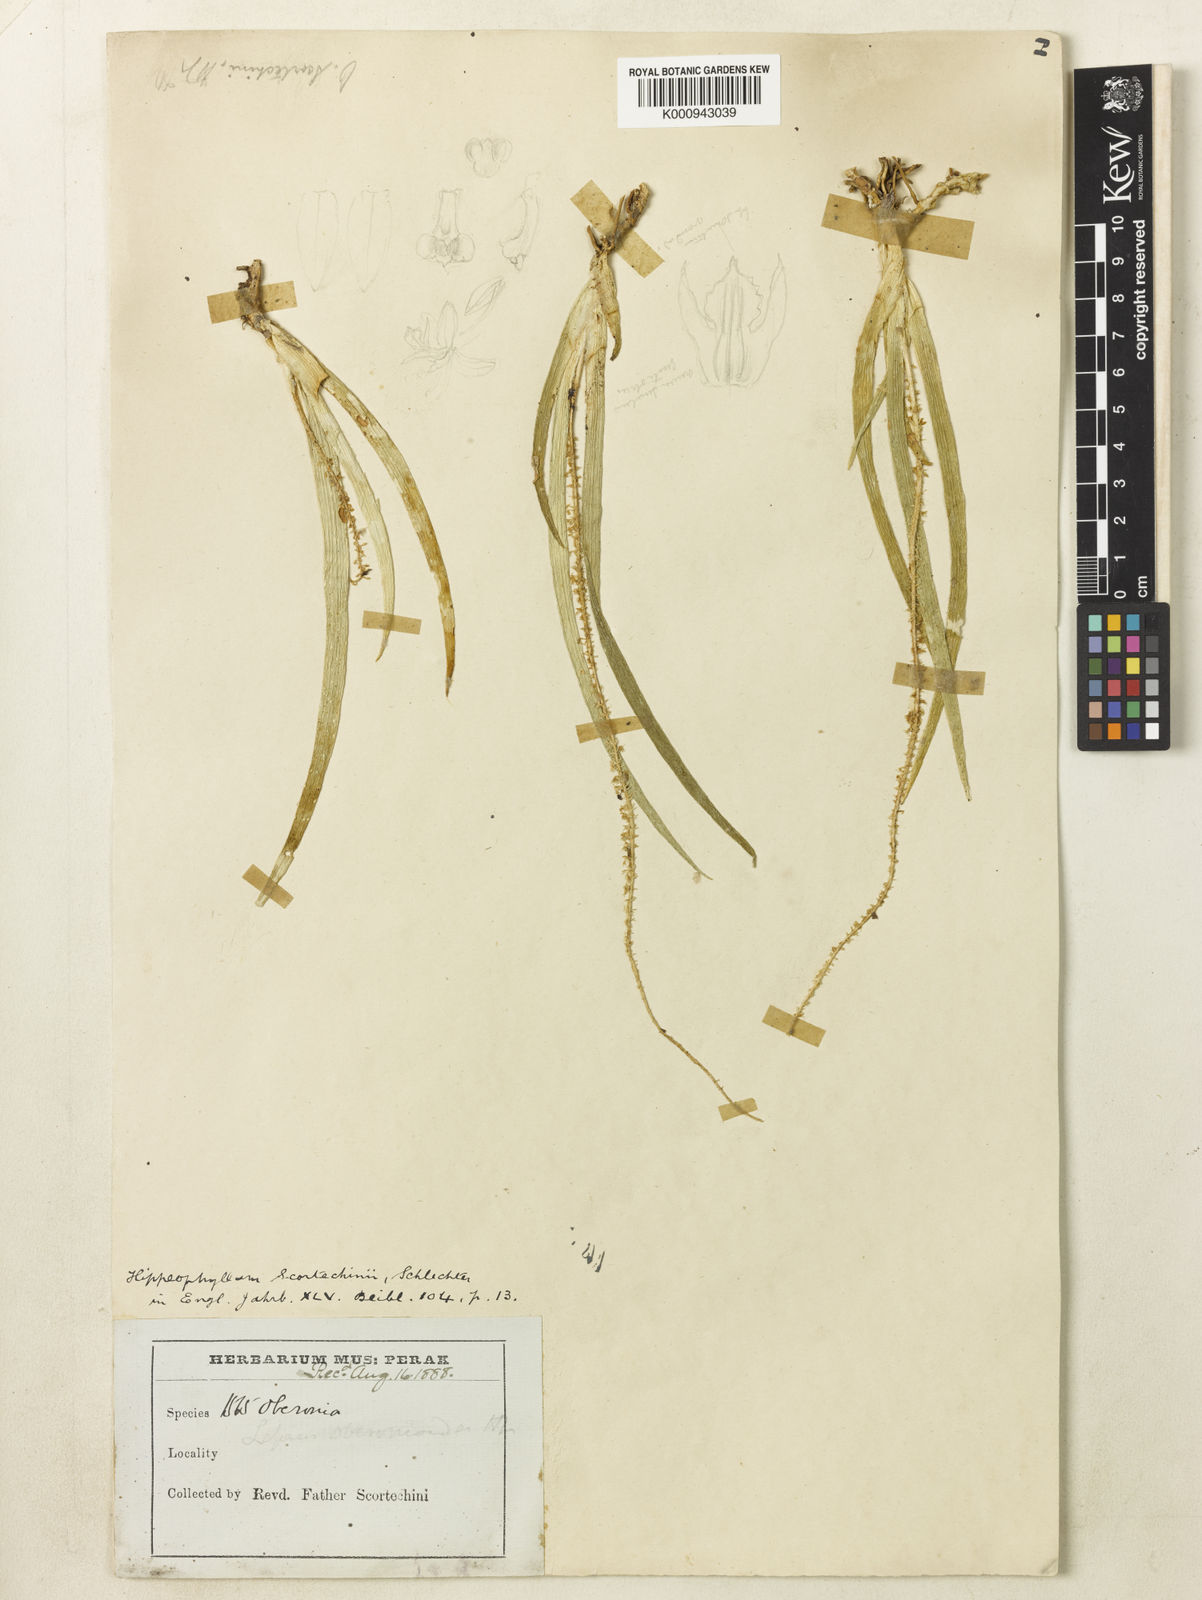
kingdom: Plantae
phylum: Tracheophyta
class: Liliopsida
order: Asparagales
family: Orchidaceae
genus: Hippeophyllum
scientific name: Hippeophyllum scortechinii
